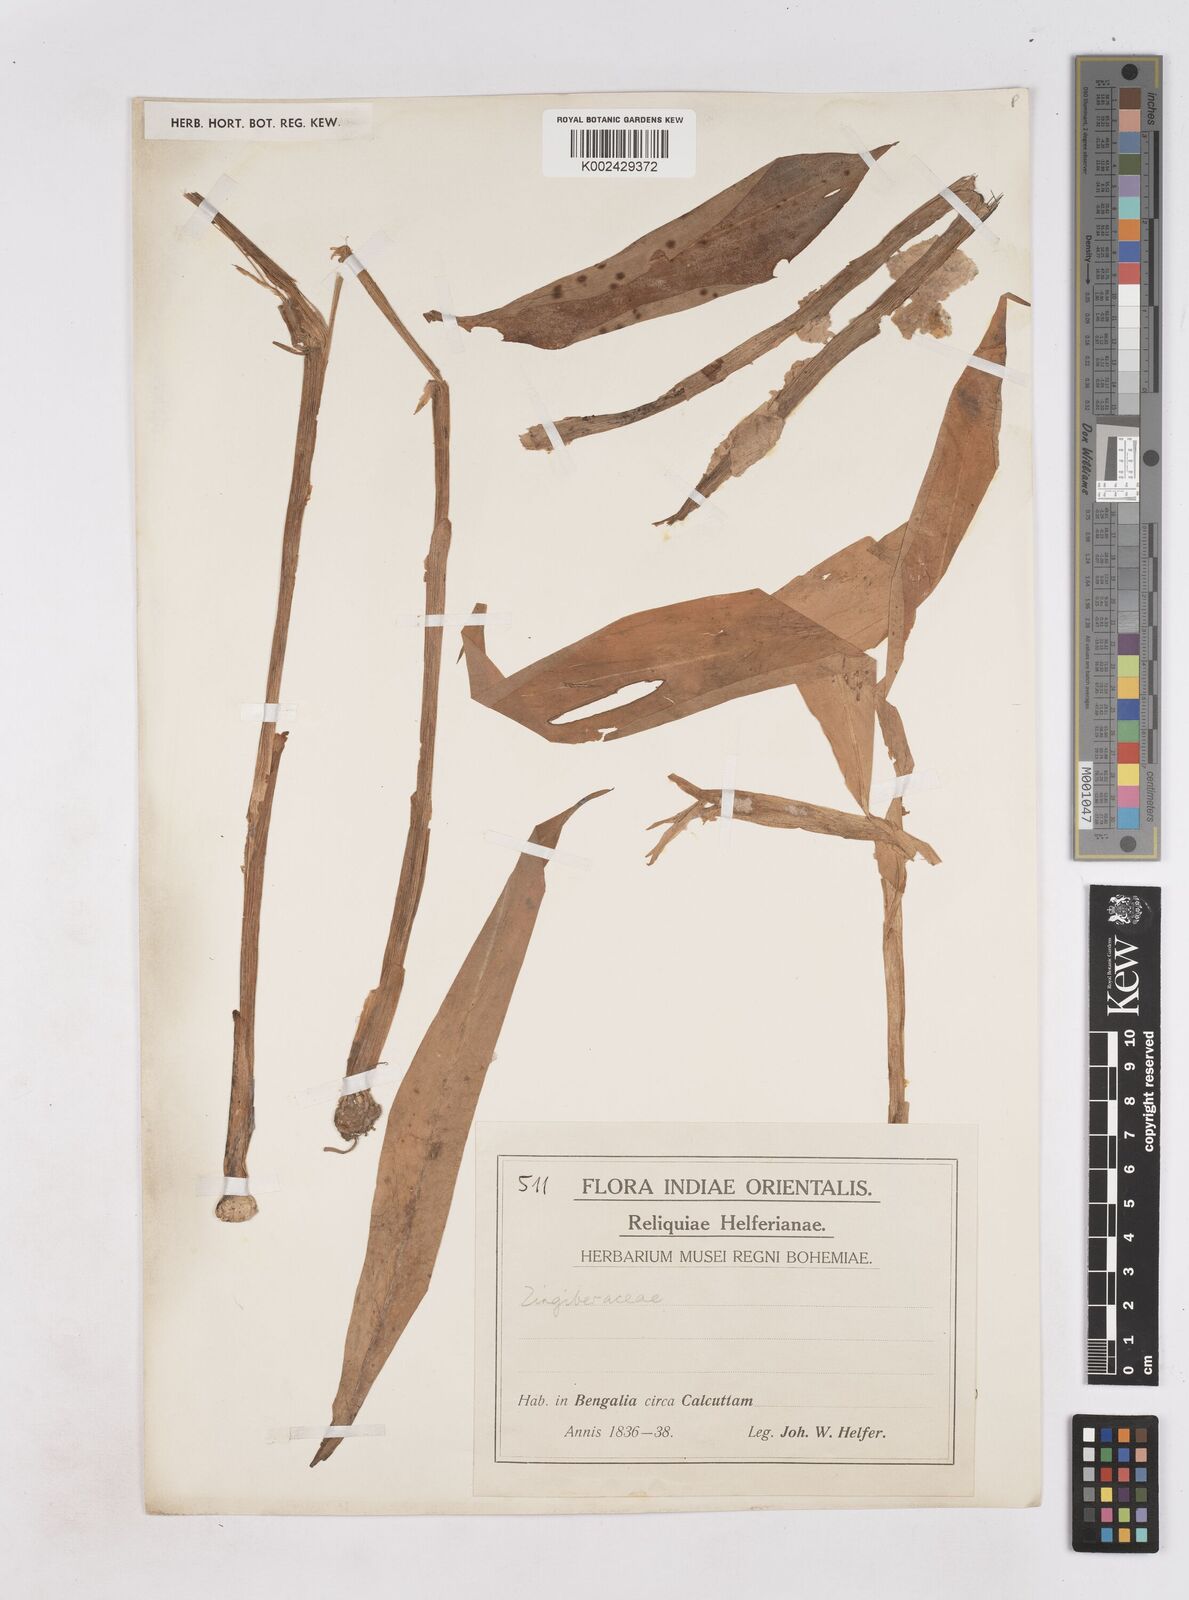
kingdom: Plantae
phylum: Tracheophyta
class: Liliopsida
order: Zingiberales
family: Zingiberaceae
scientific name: Zingiberaceae
